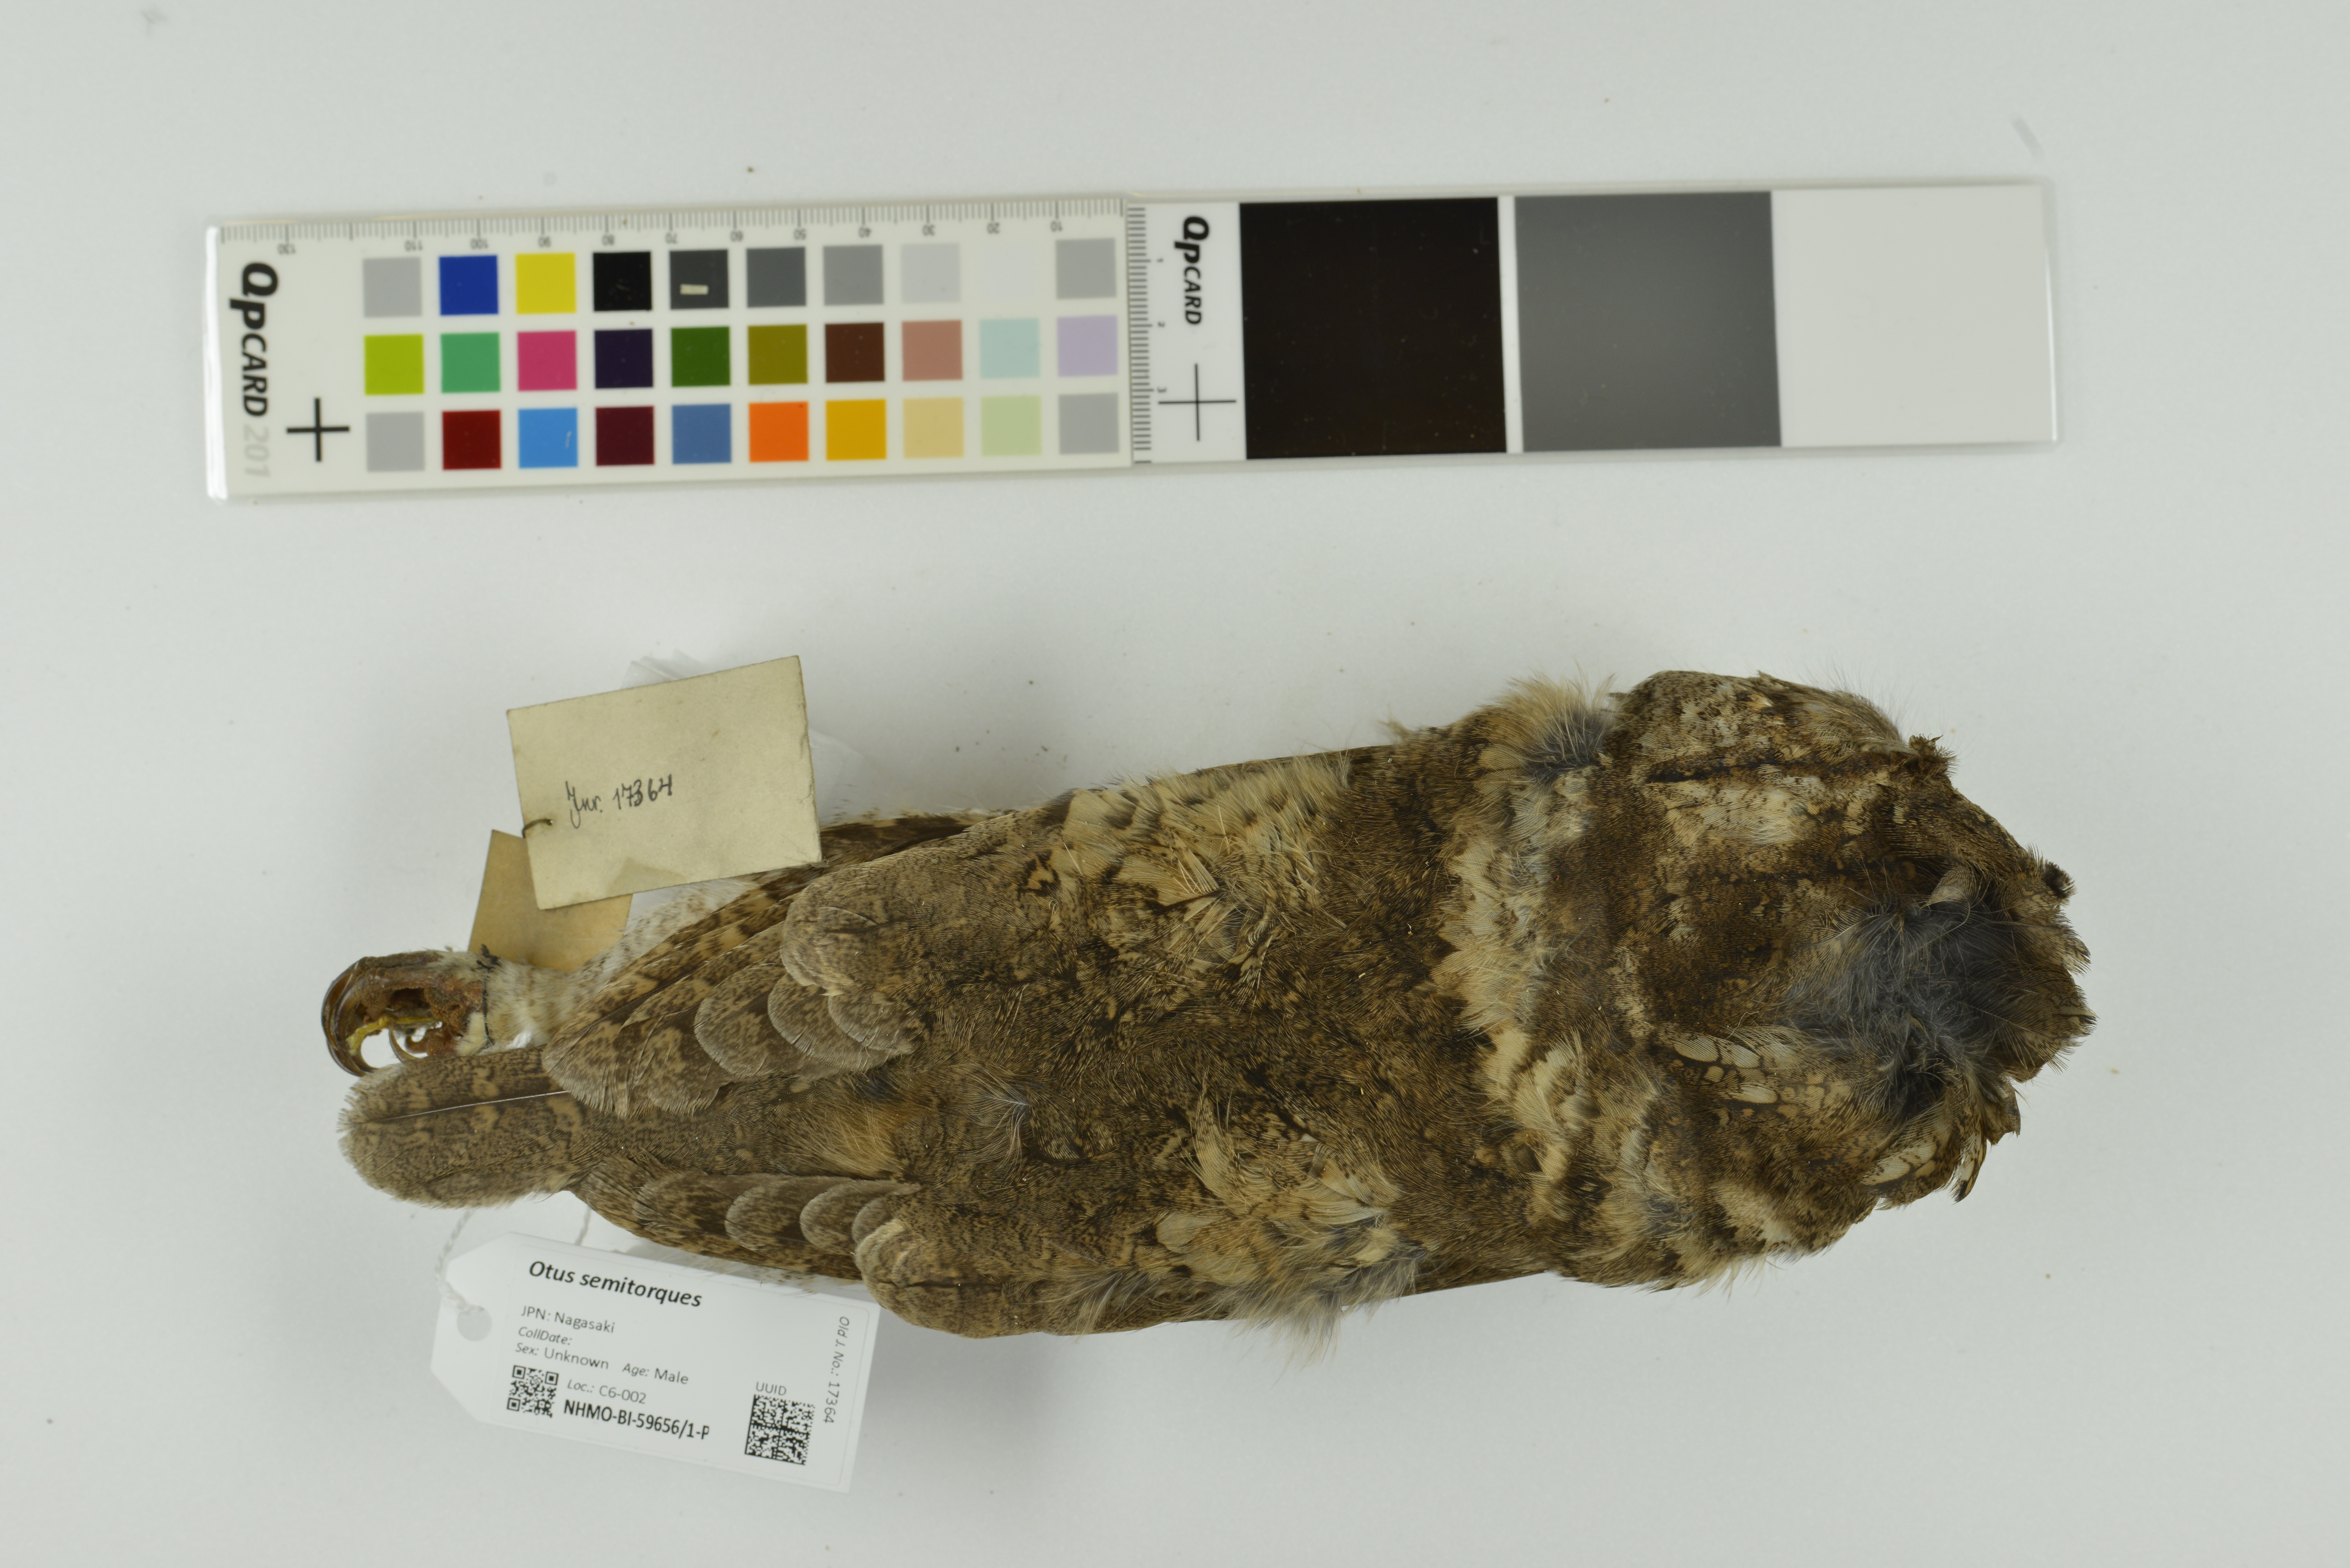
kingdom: Animalia
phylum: Chordata
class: Aves
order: Strigiformes
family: Strigidae
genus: Otus
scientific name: Otus semitorques
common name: Japanese scops owl
